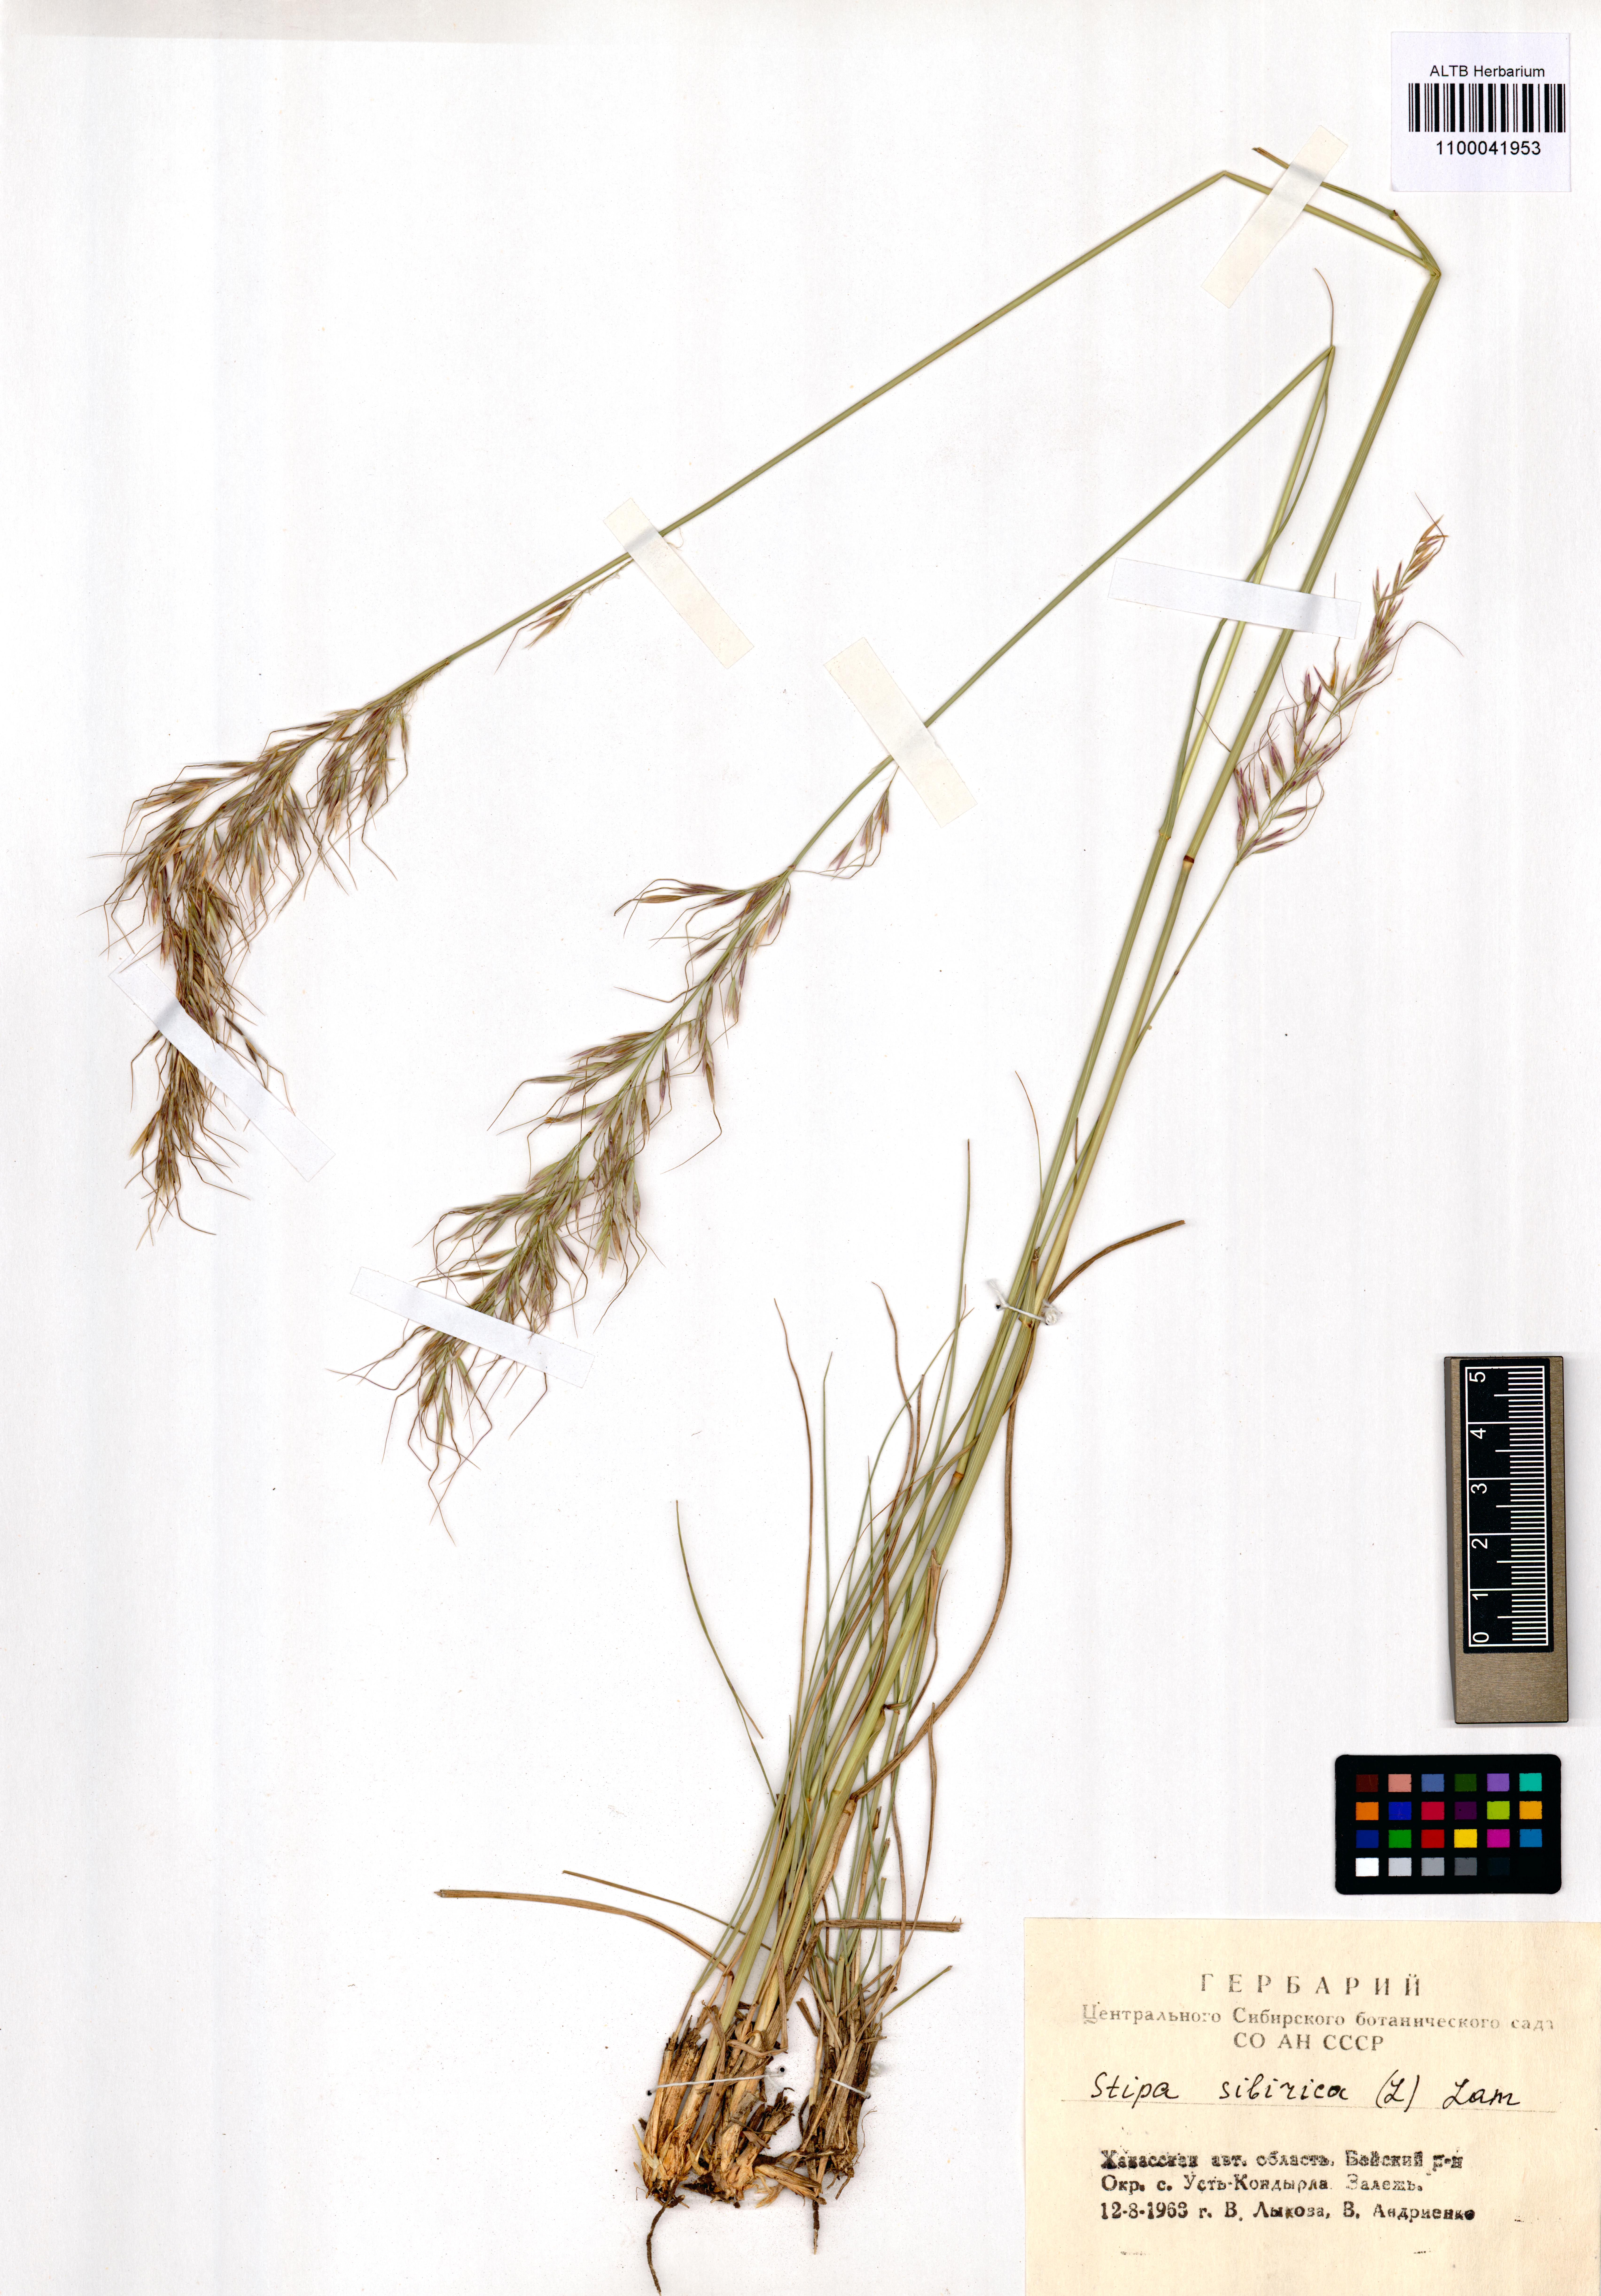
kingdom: Plantae
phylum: Tracheophyta
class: Liliopsida
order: Poales
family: Poaceae
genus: Achnatherum
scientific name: Achnatherum sibiricum
